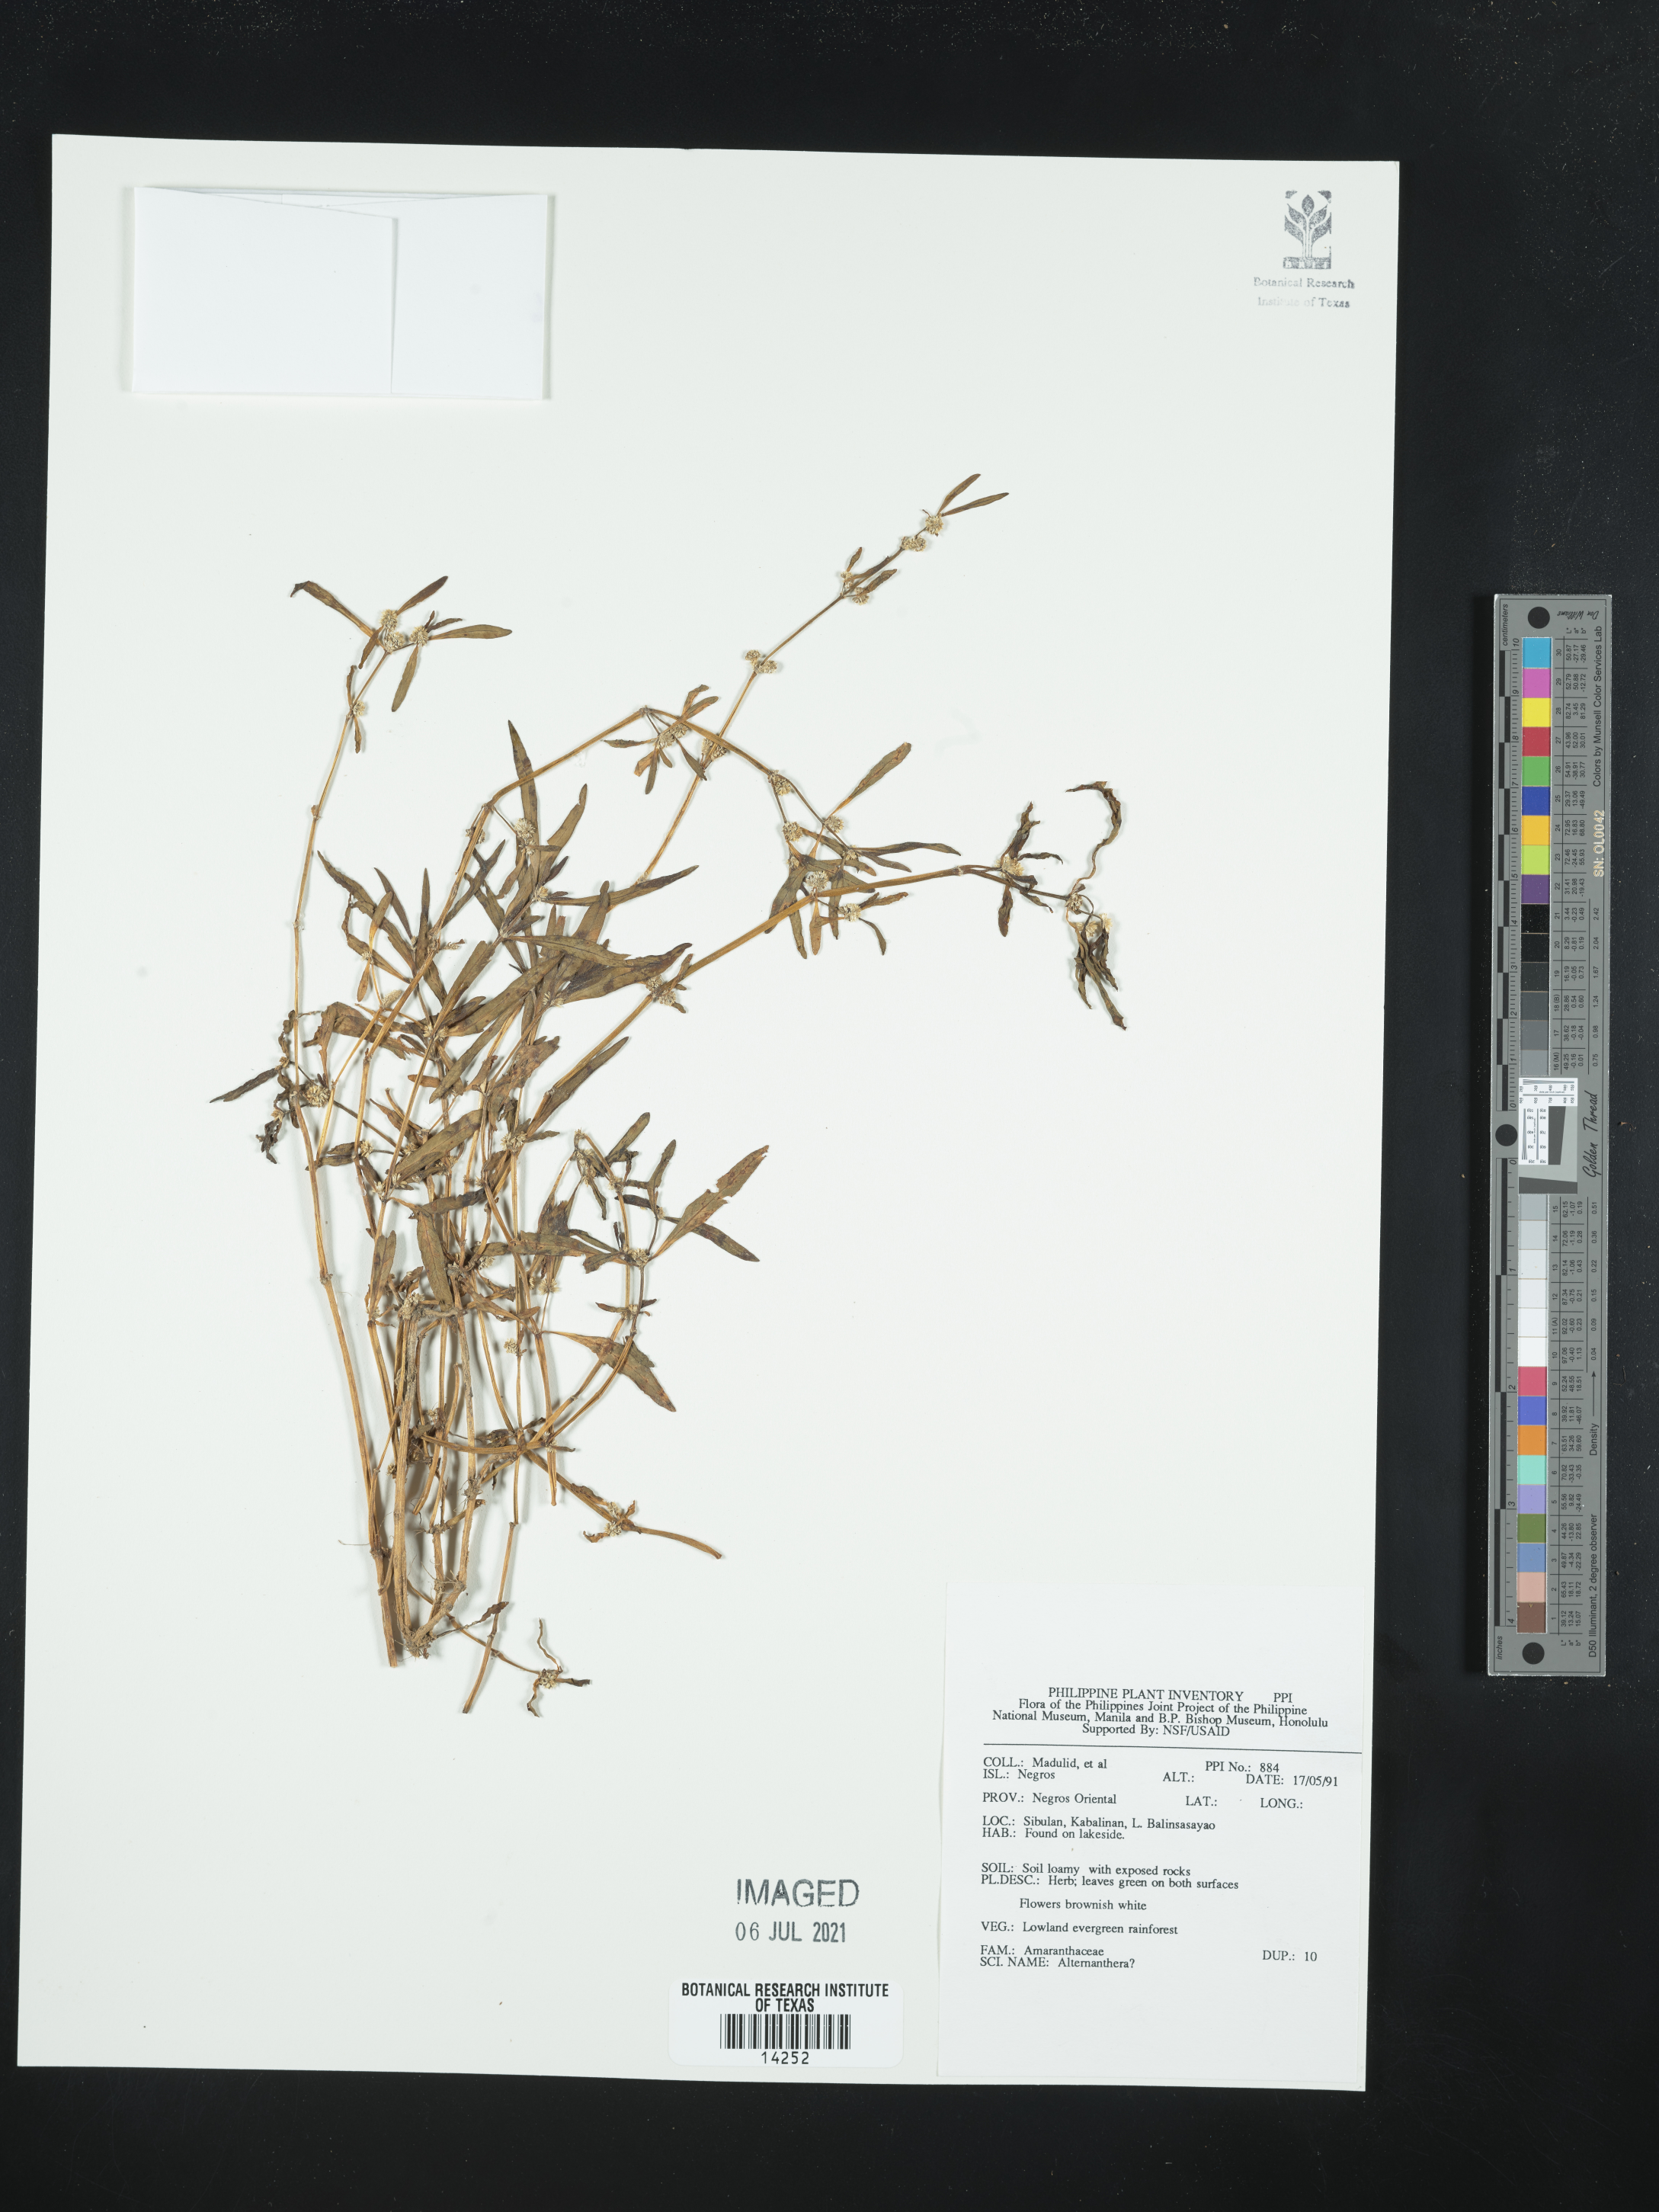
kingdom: Plantae
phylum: Tracheophyta
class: Magnoliopsida
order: Caryophyllales
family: Amaranthaceae
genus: Alternanthera
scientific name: Alternanthera
